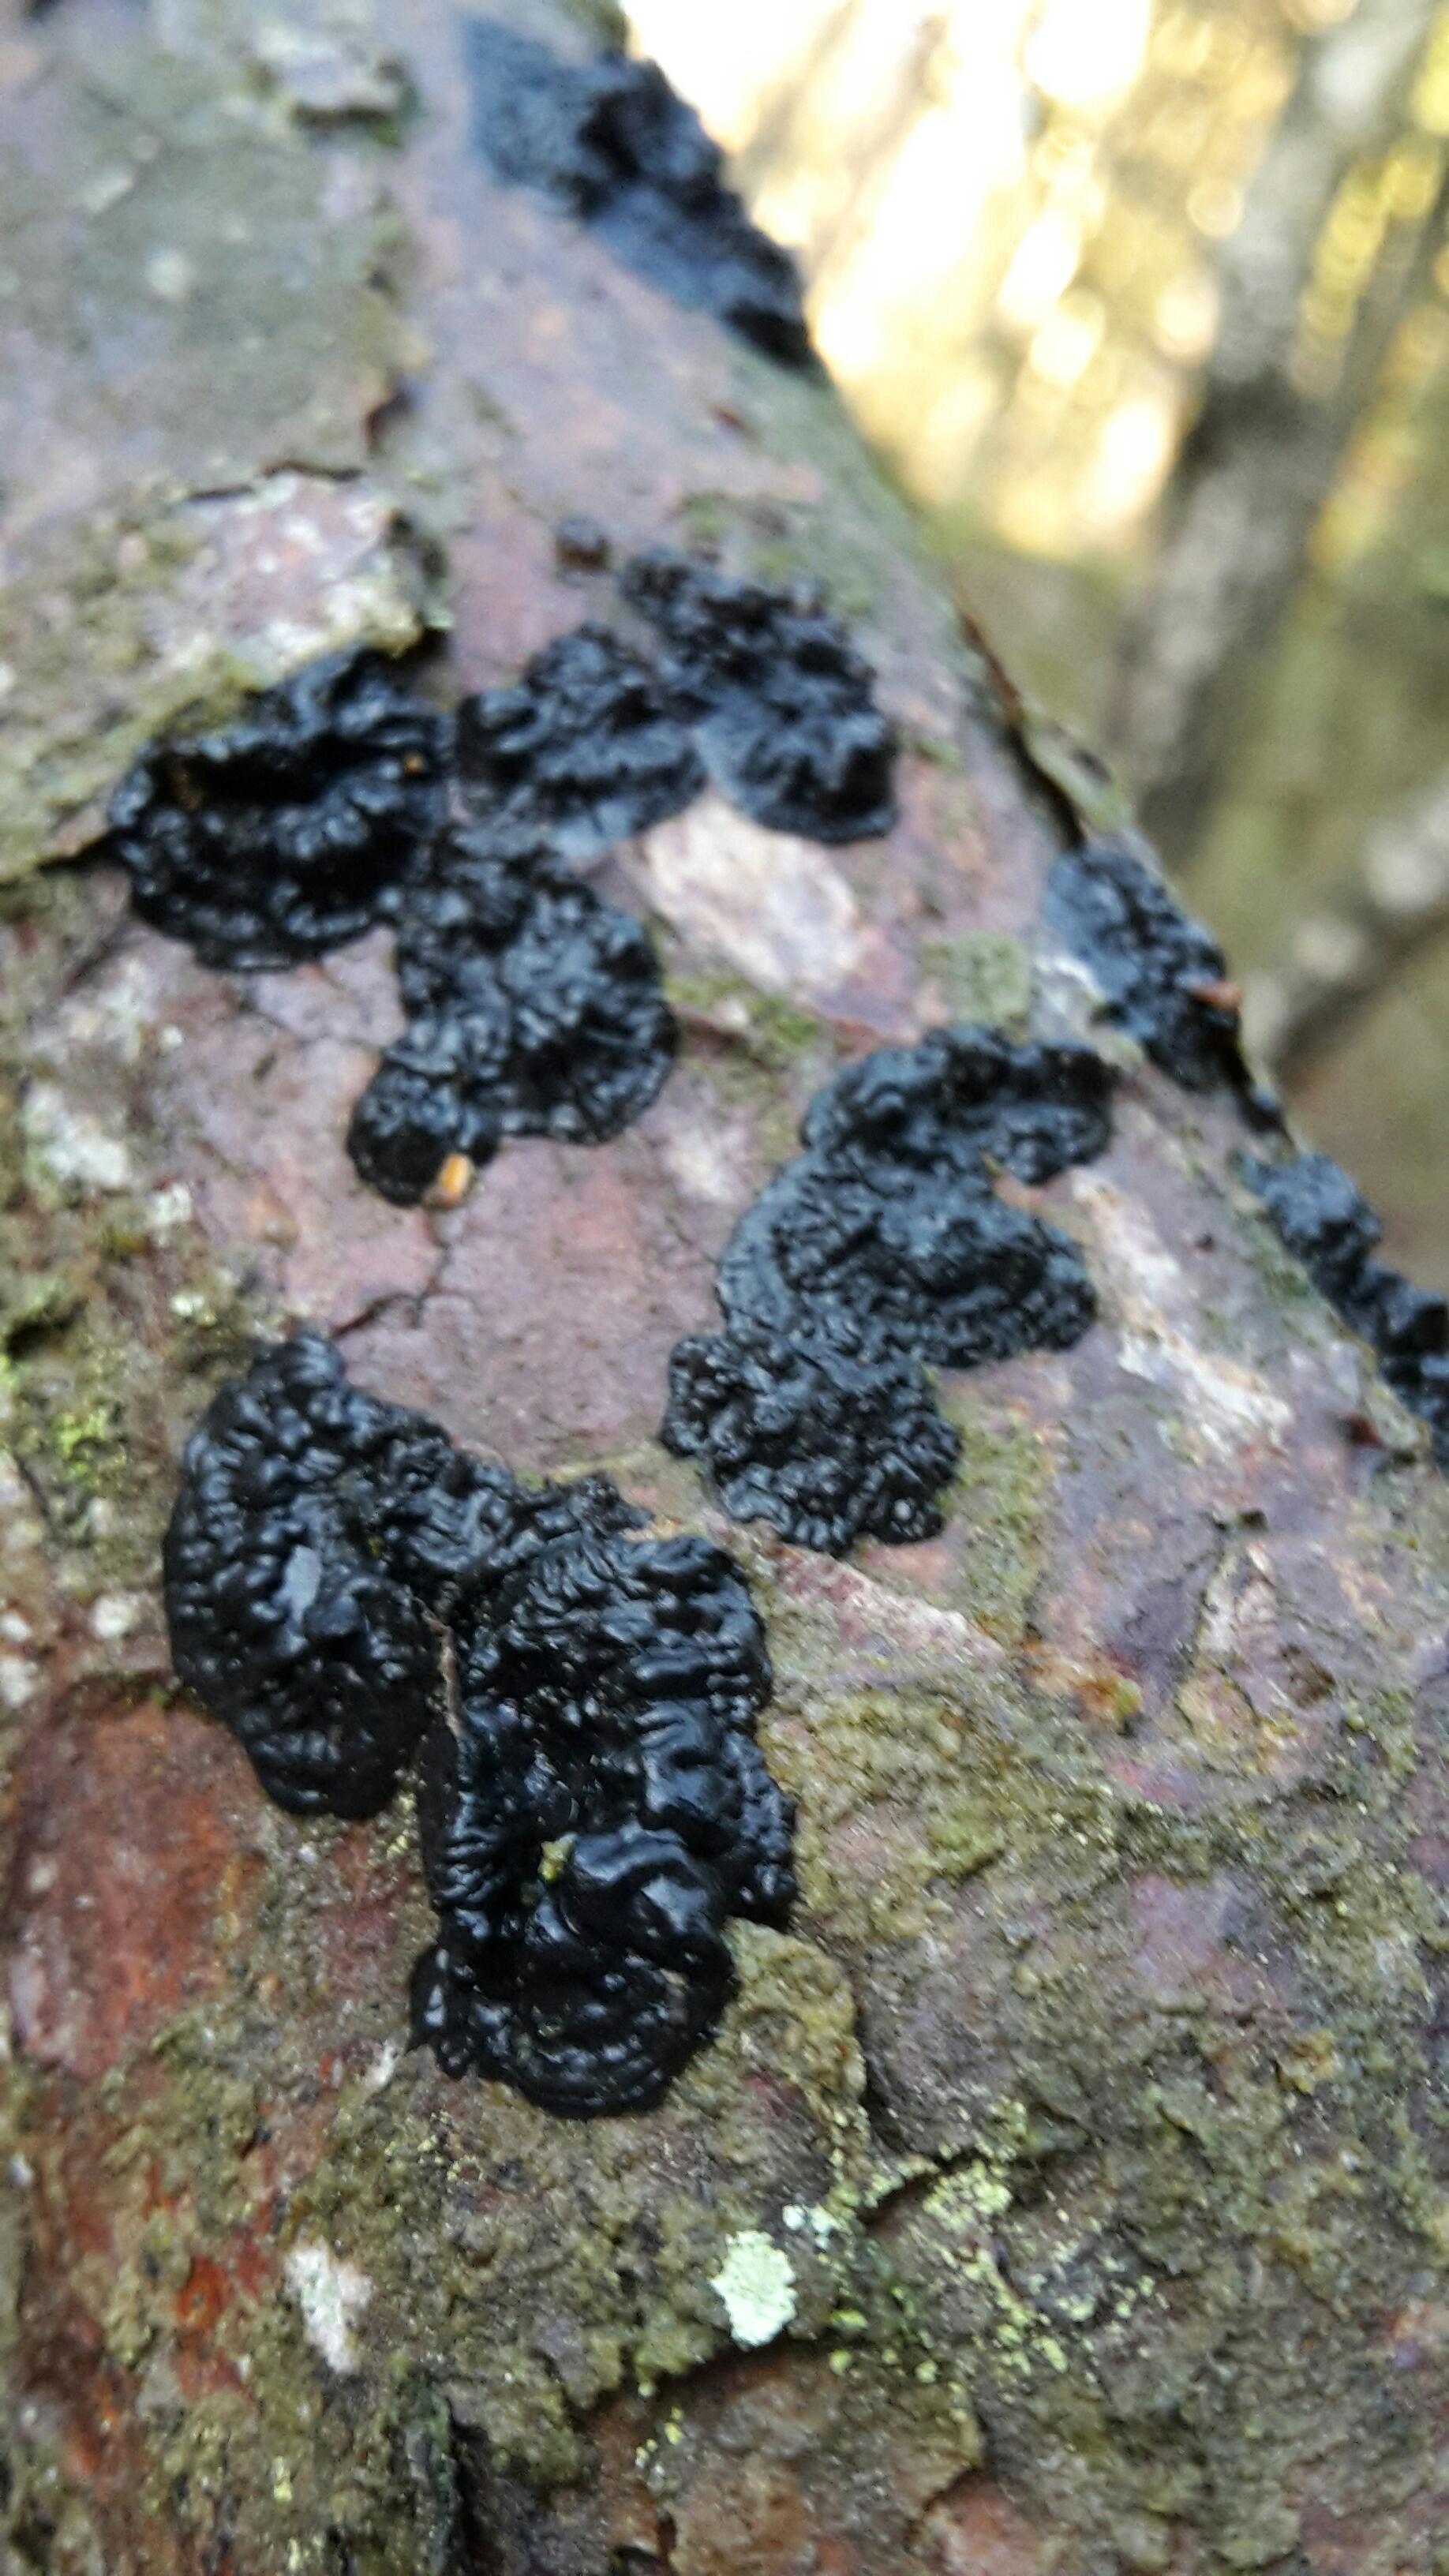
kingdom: Fungi
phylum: Basidiomycota
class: Agaricomycetes
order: Auriculariales
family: Auriculariaceae
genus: Exidia
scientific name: Exidia pithya
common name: gran-bævretop
